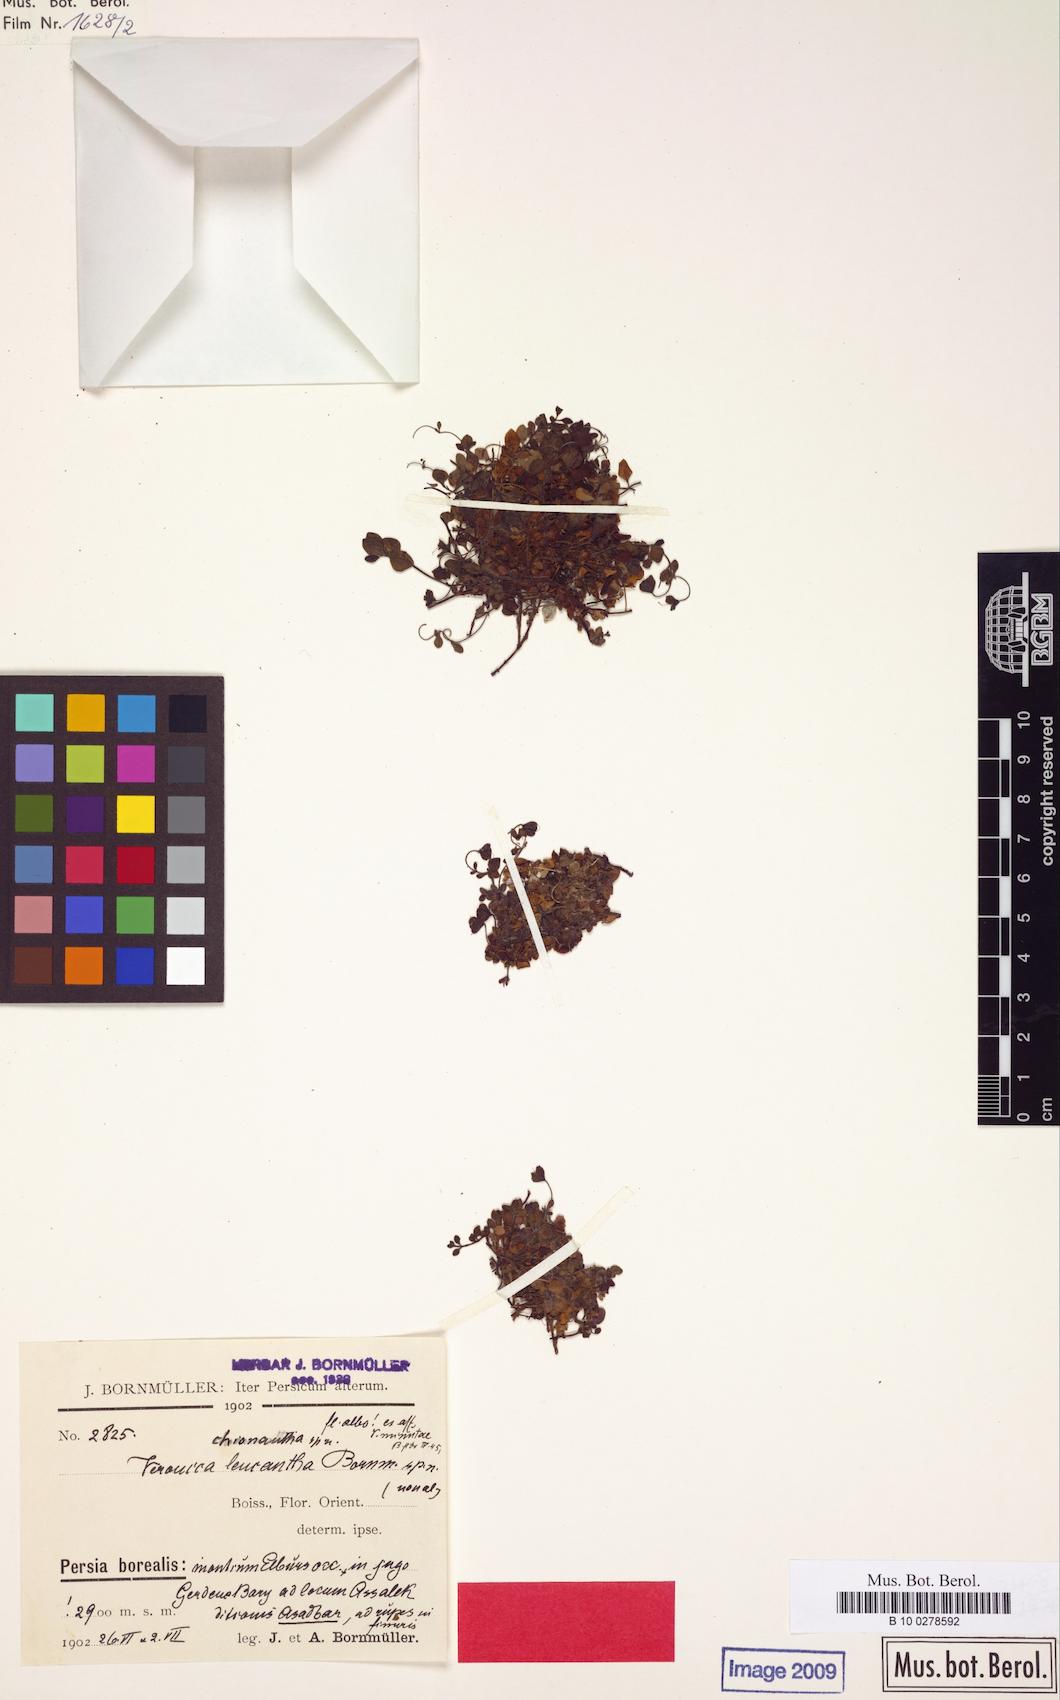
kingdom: Plantae
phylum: Tracheophyta
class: Magnoliopsida
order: Lamiales
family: Plantaginaceae
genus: Veronica
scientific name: Veronica chionantha
